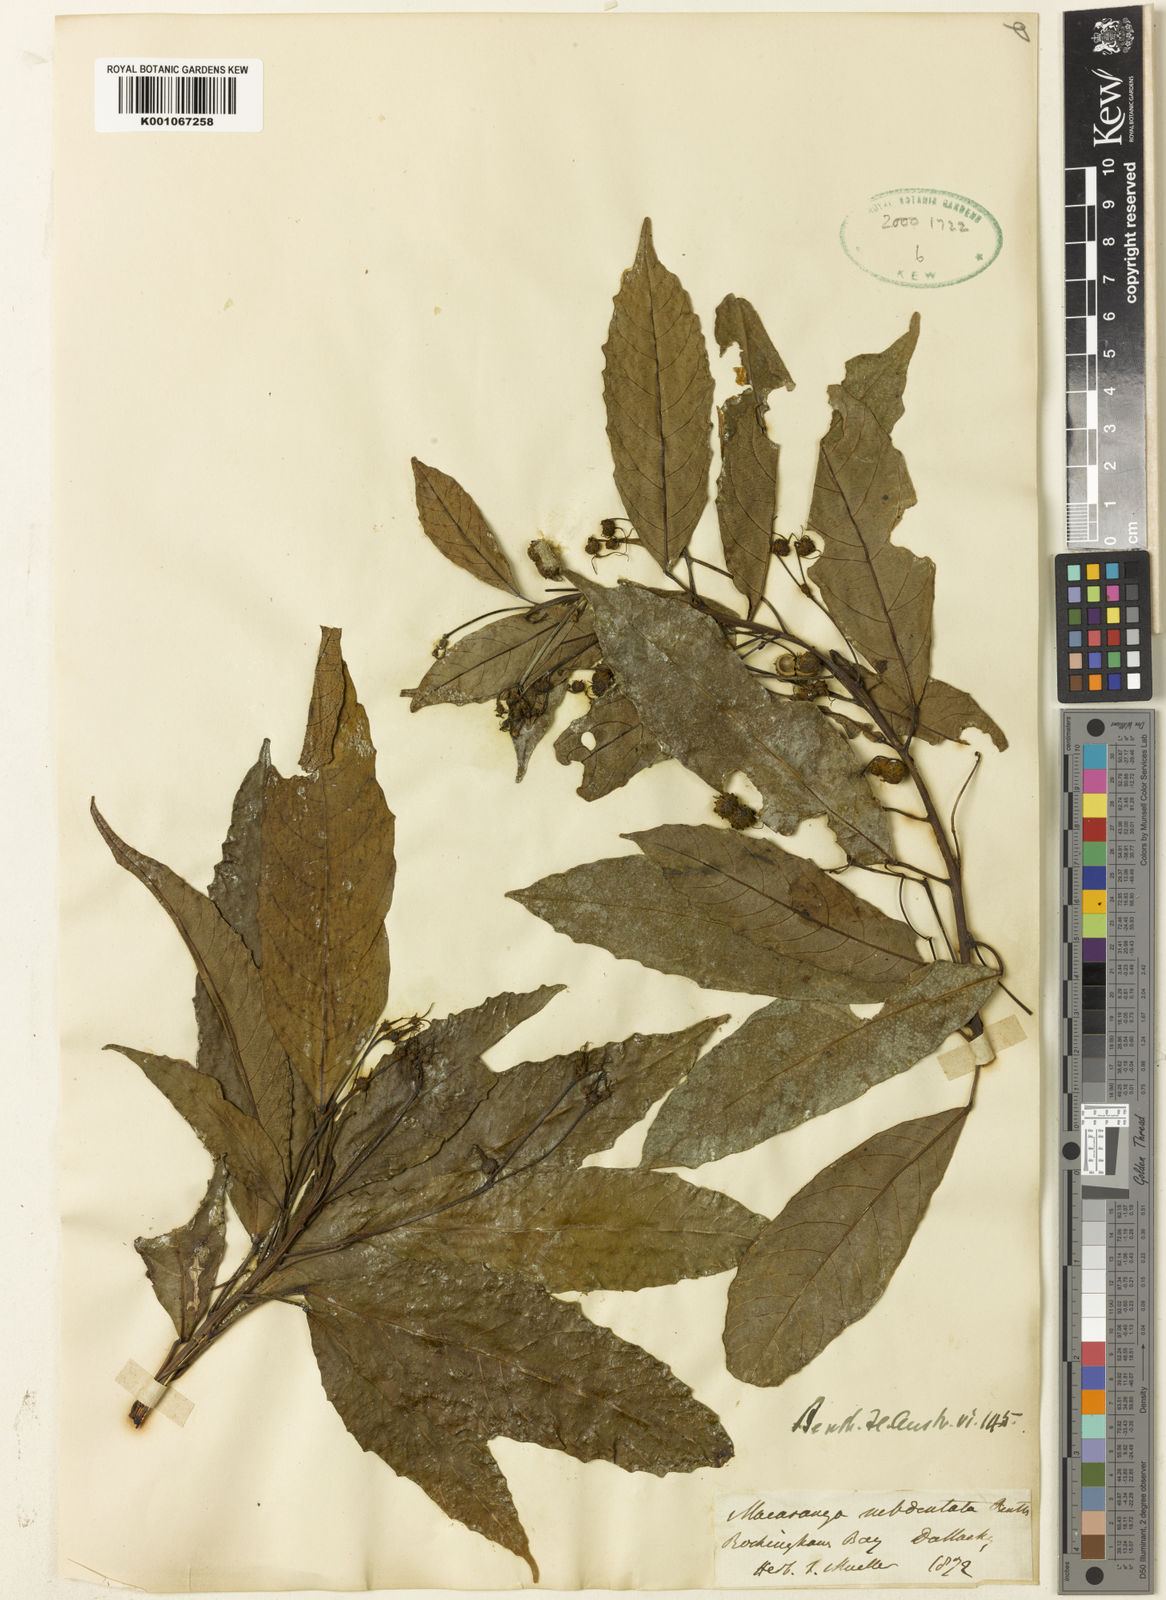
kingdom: Plantae
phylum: Tracheophyta
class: Magnoliopsida
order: Malpighiales
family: Euphorbiaceae
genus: Macaranga
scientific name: Macaranga subdentata
